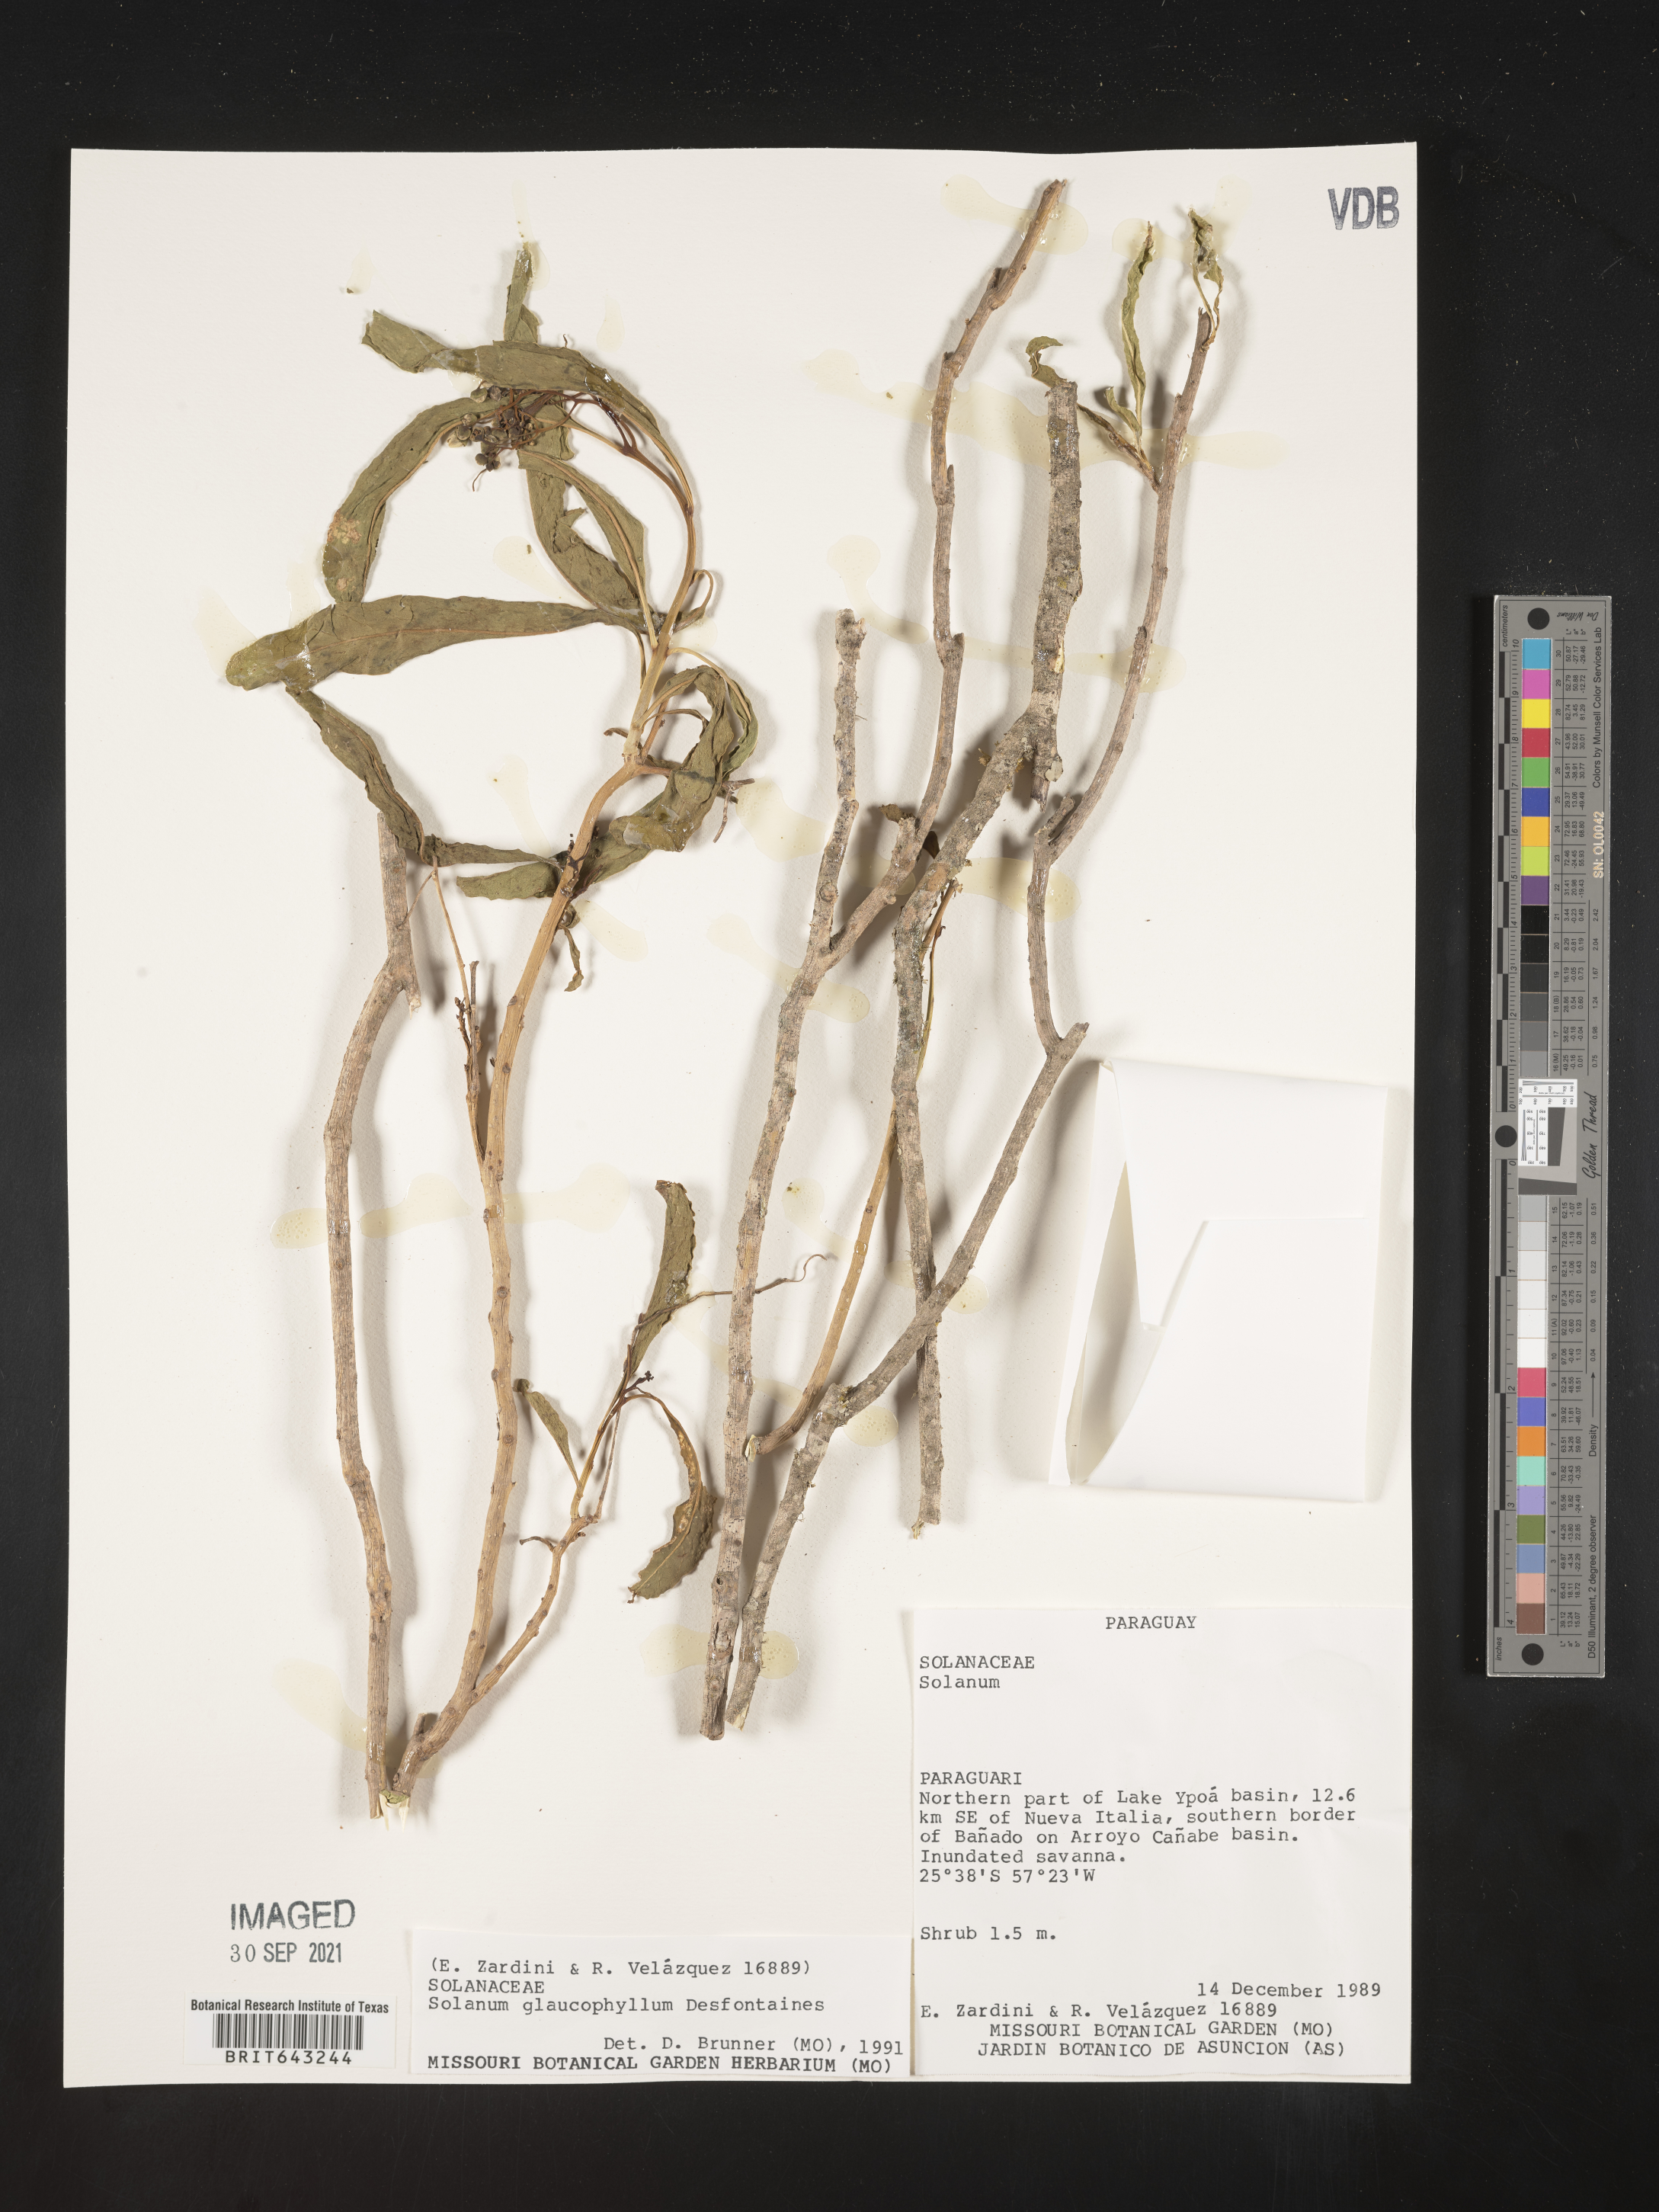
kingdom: Plantae
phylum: Tracheophyta
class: Magnoliopsida
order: Solanales
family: Solanaceae
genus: Solanum
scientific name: Solanum
